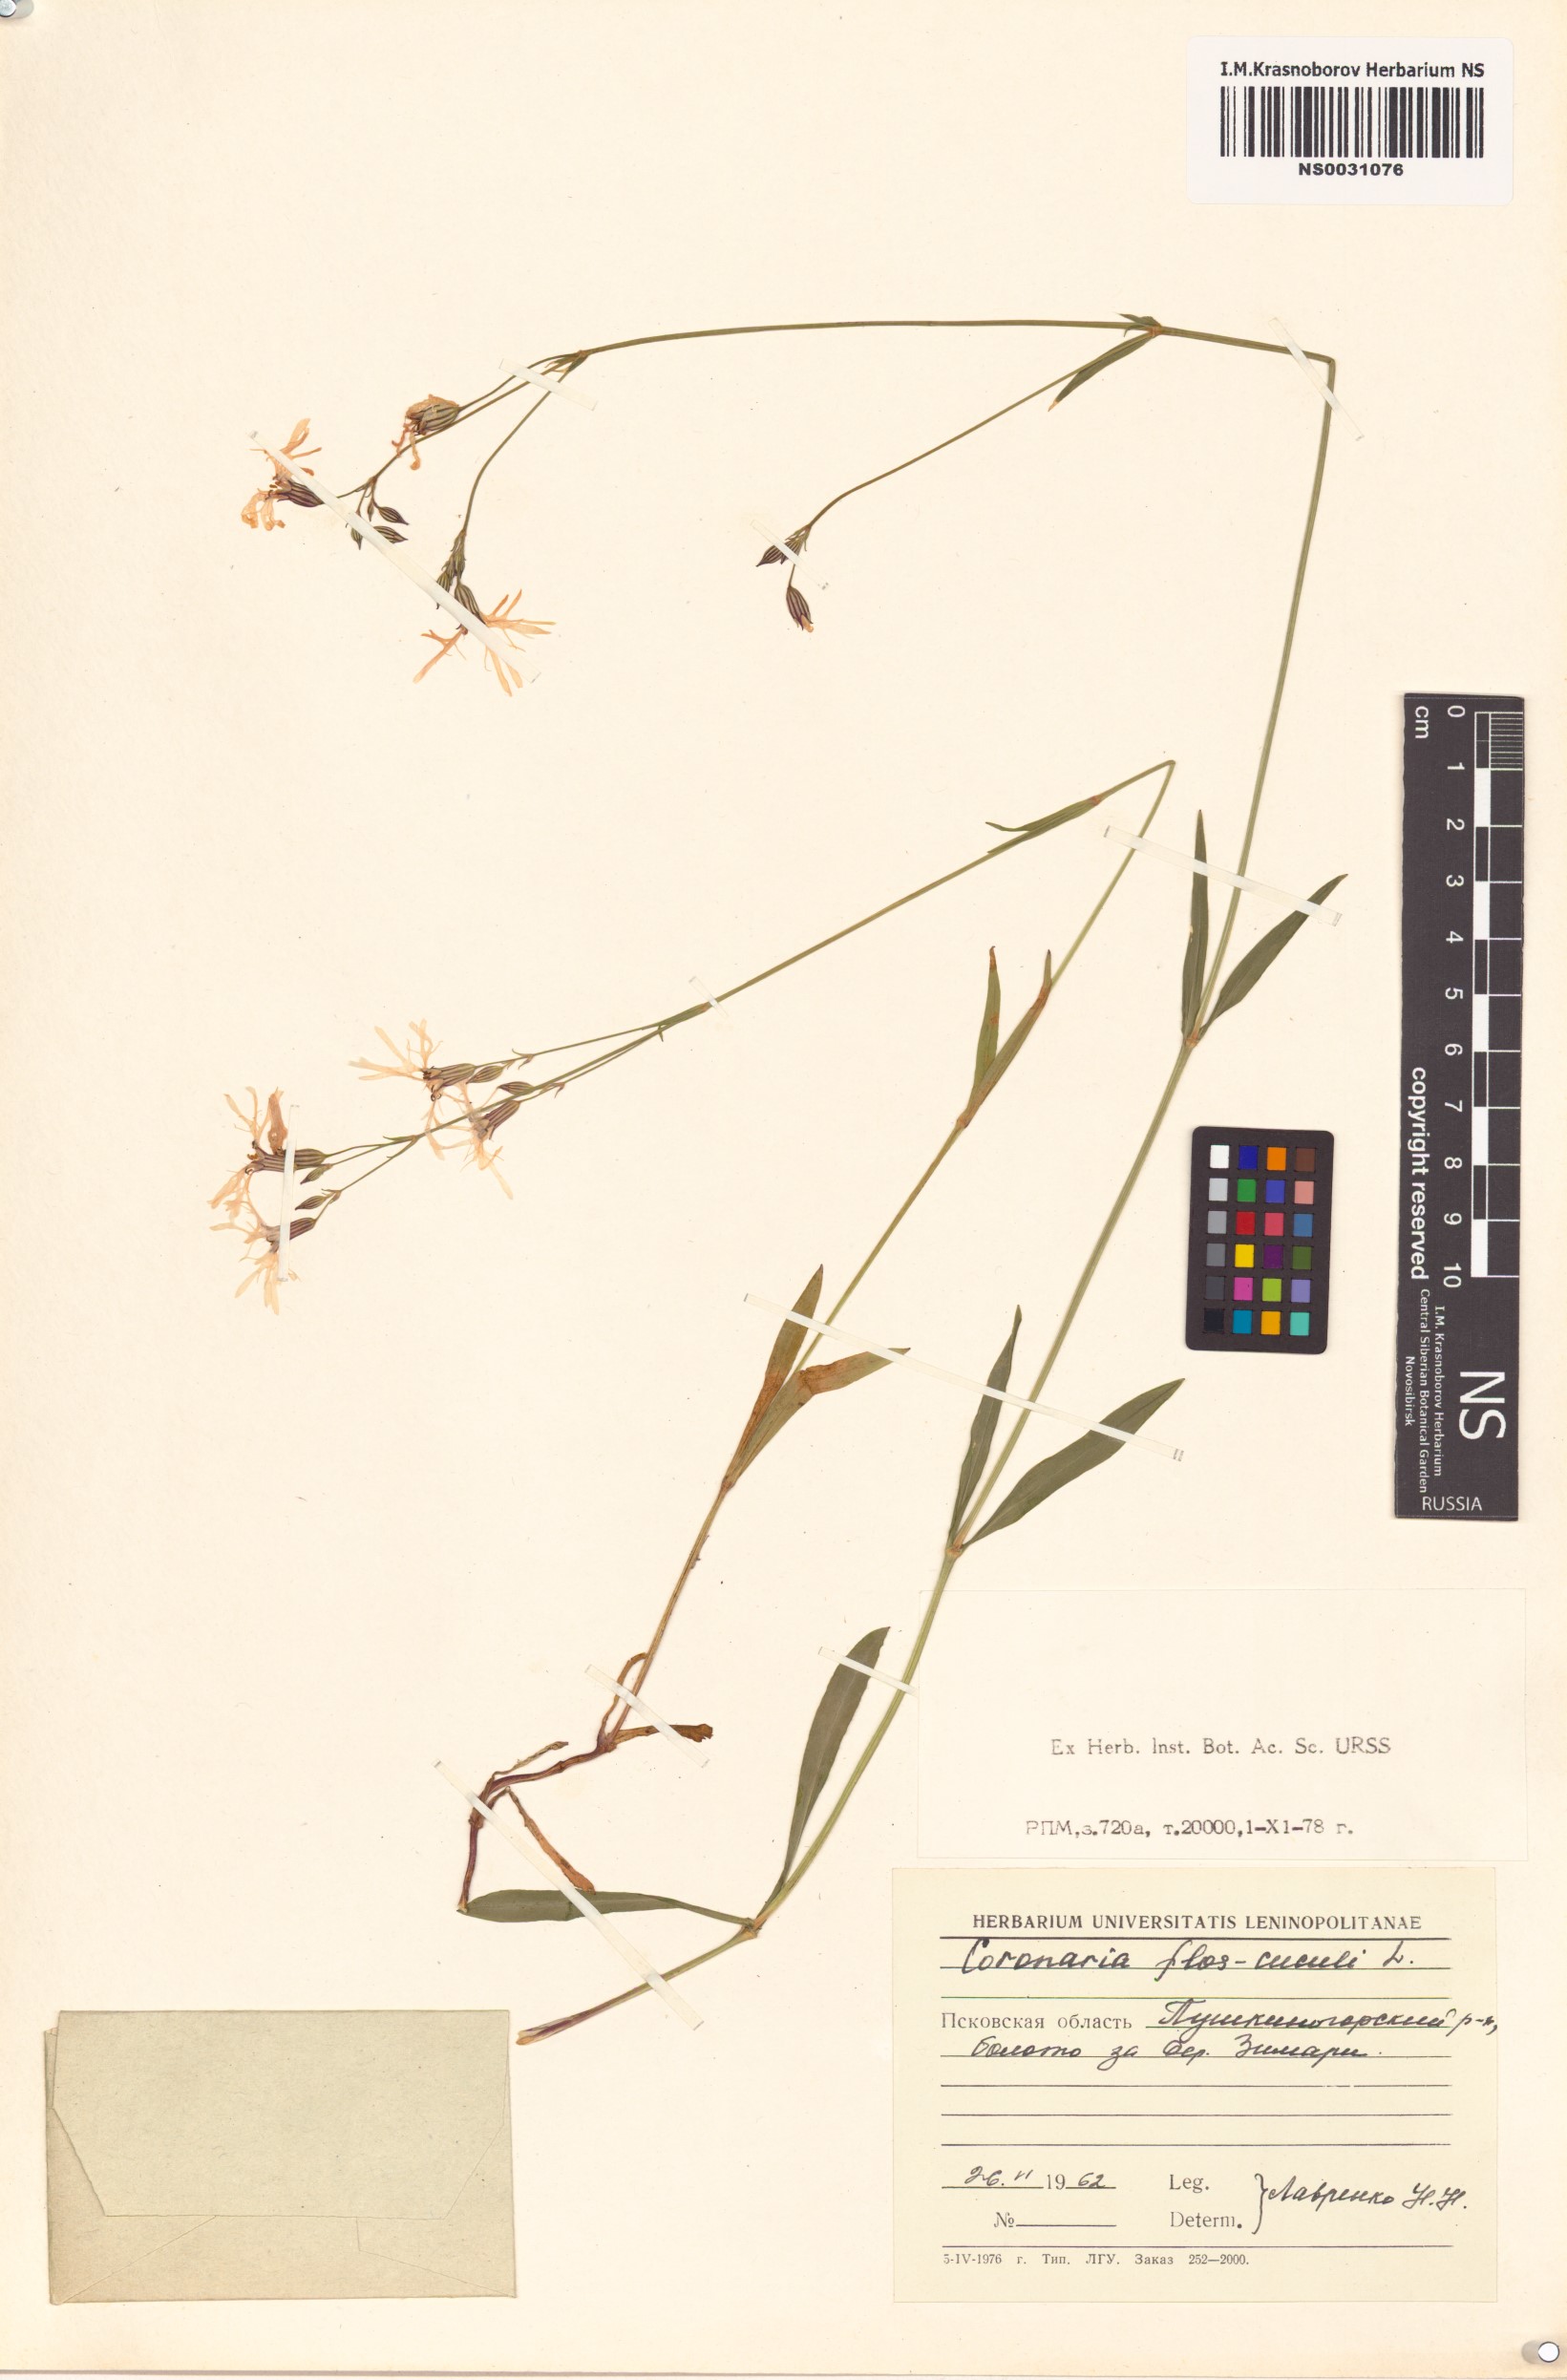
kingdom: Plantae
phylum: Tracheophyta
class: Magnoliopsida
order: Caryophyllales
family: Caryophyllaceae
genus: Silene
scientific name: Silene flos-cuculi
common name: Ragged-robin
